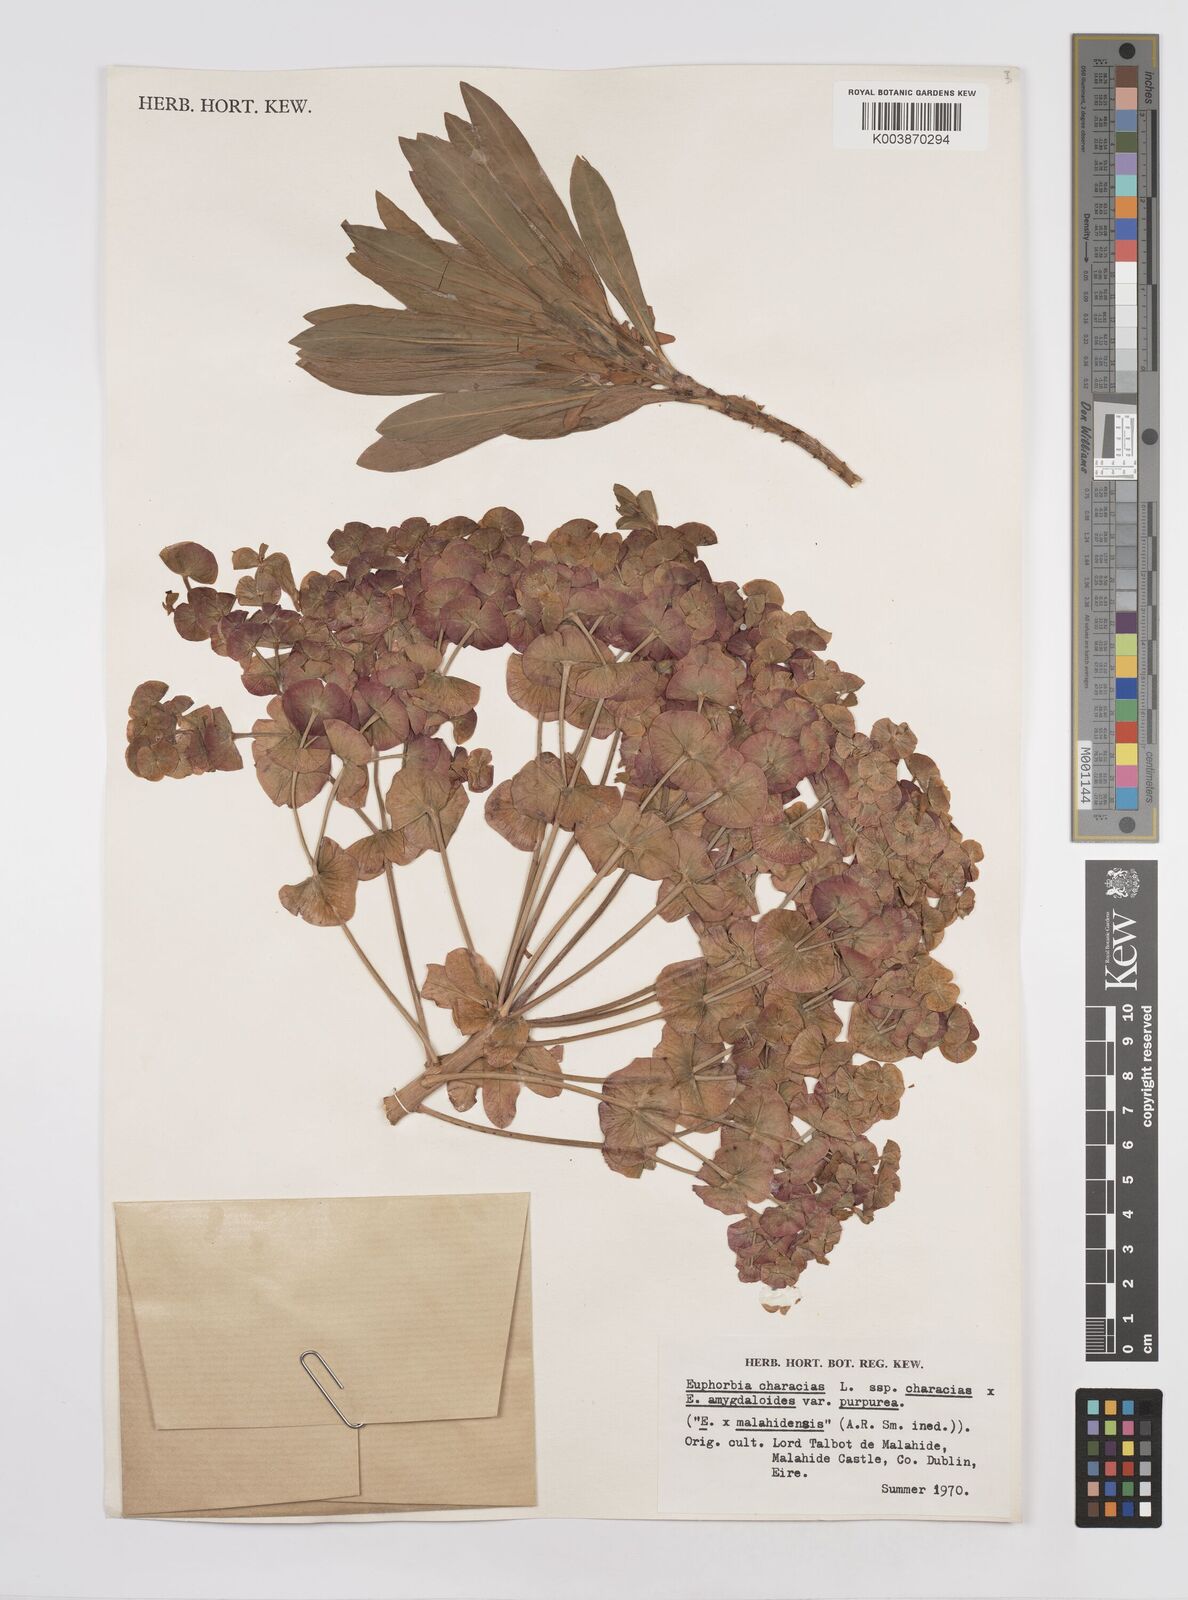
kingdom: Plantae
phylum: Tracheophyta
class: Magnoliopsida
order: Malpighiales
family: Euphorbiaceae
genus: Euphorbia
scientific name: Euphorbia martini
